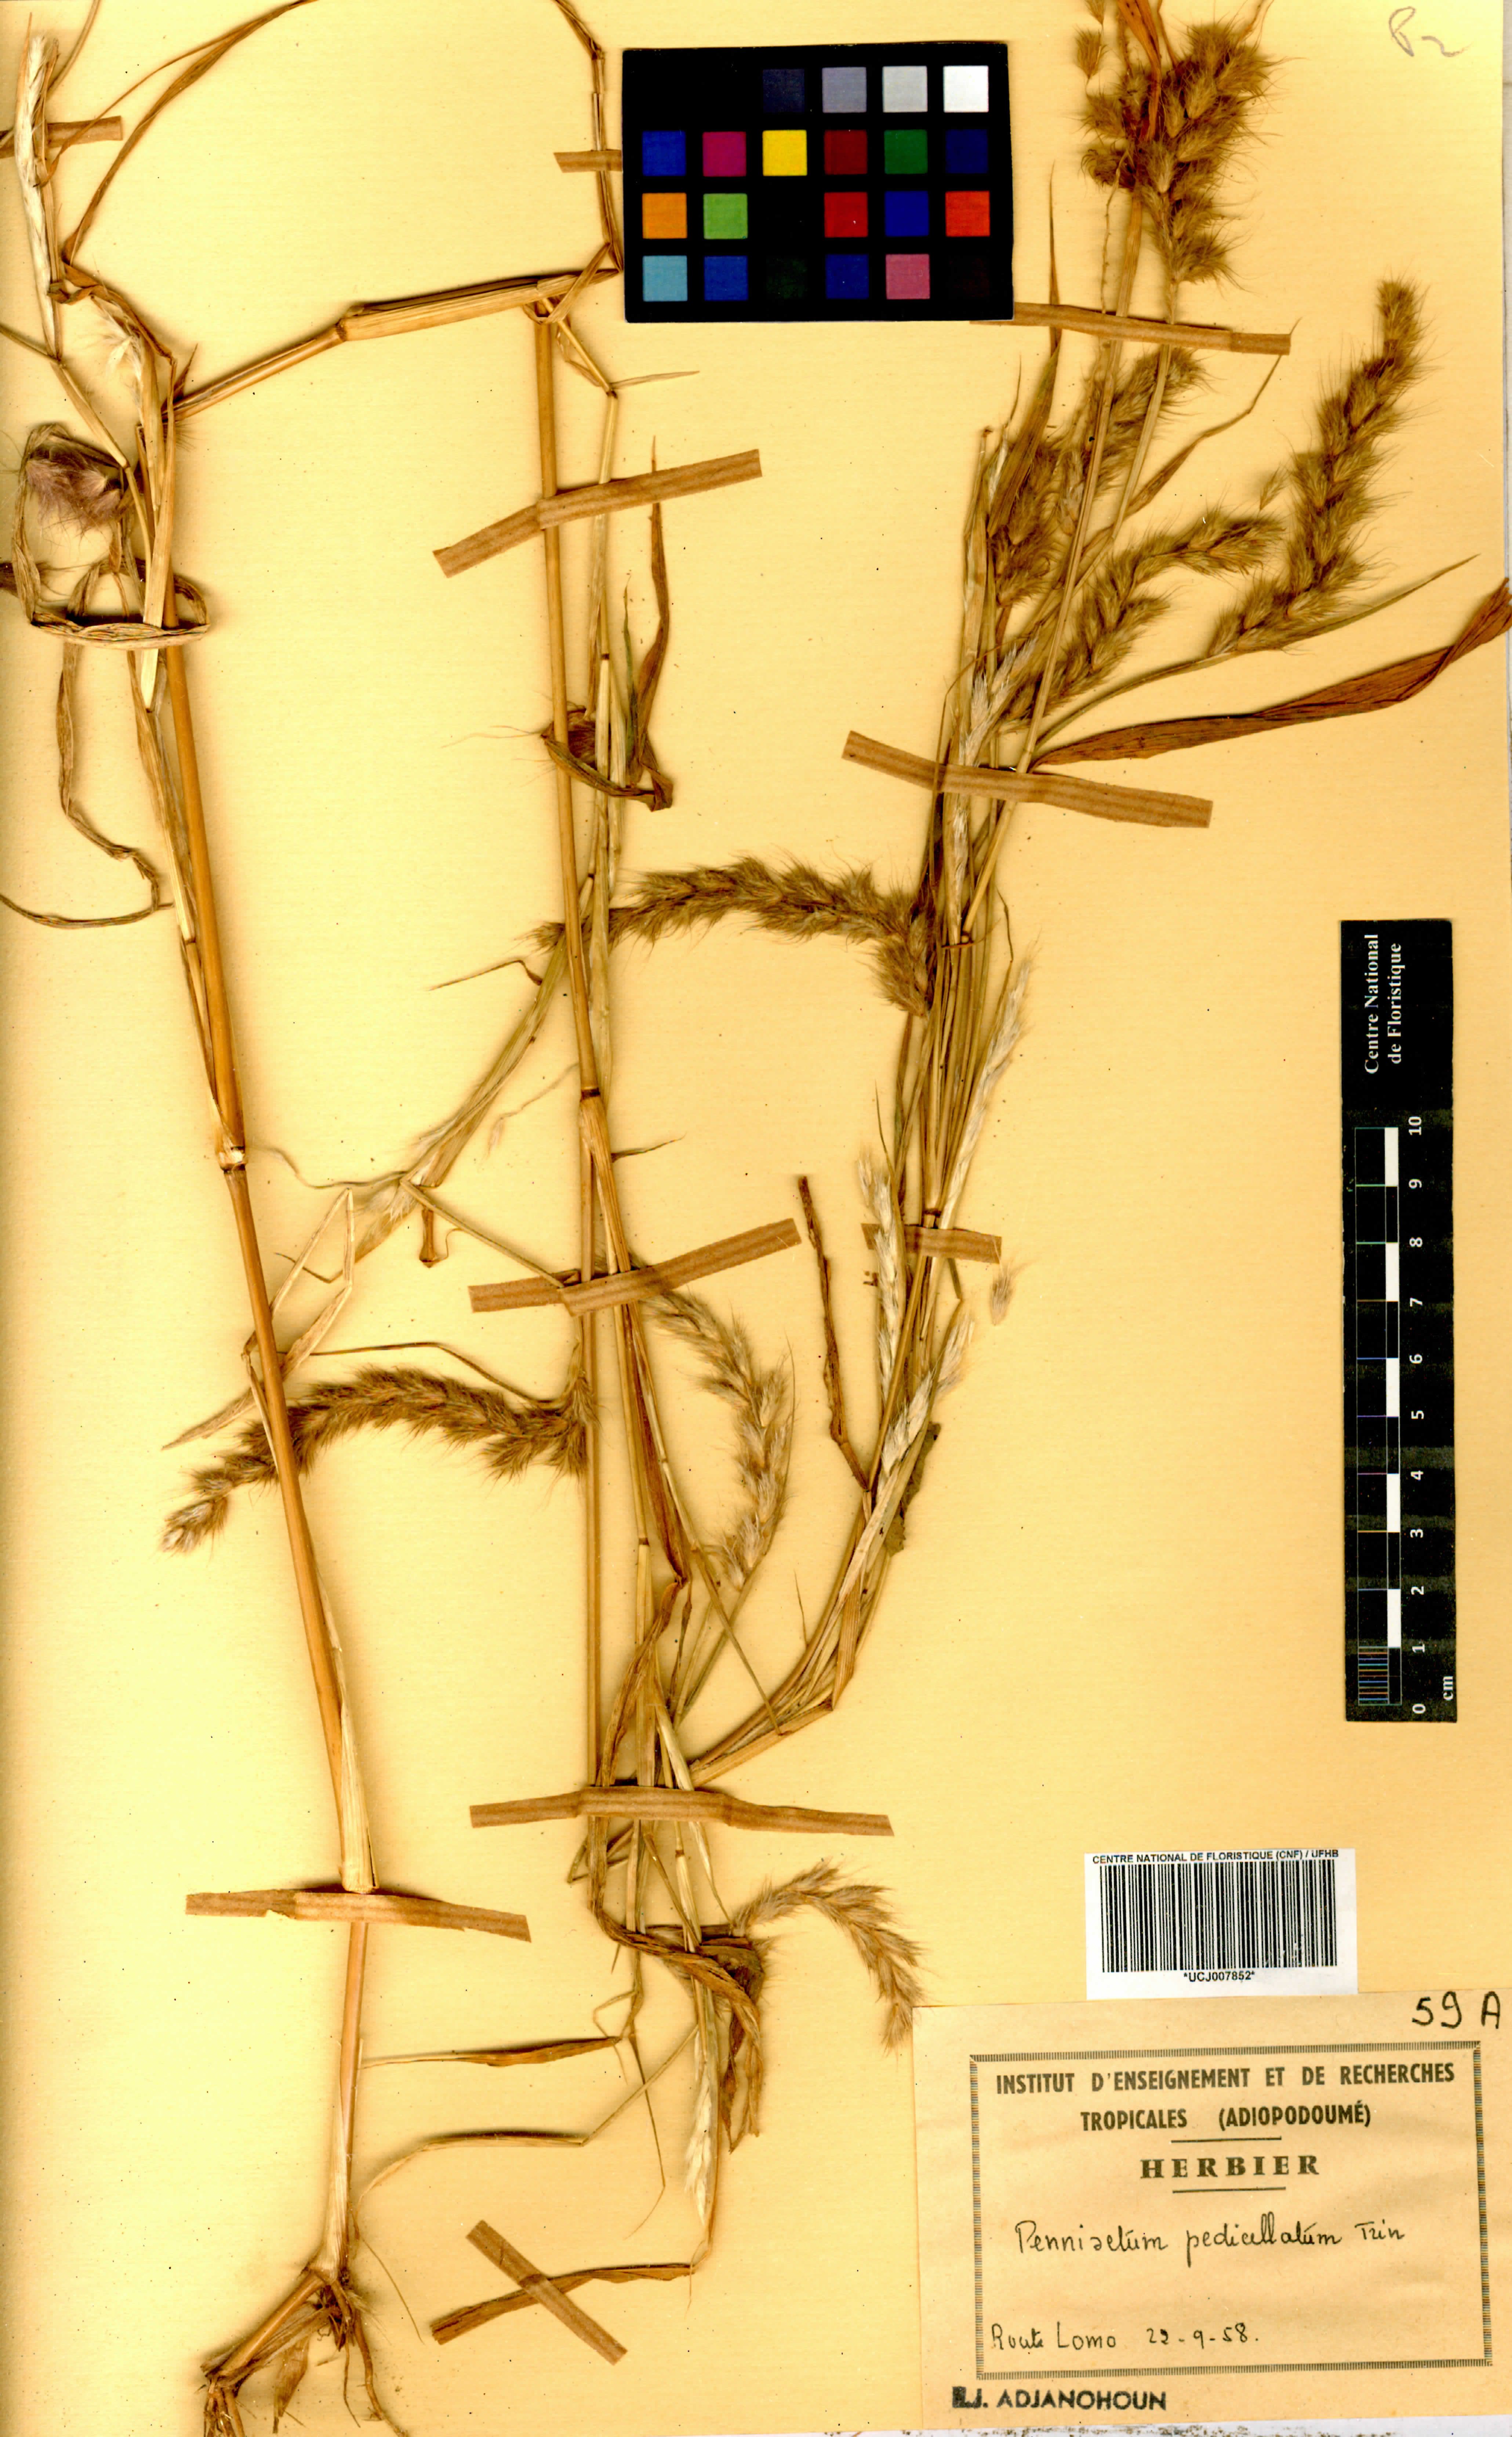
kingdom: Plantae
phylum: Tracheophyta
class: Liliopsida
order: Poales
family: Poaceae
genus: Cenchrus
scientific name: Cenchrus pedicellatus
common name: Hairy fountain grass
